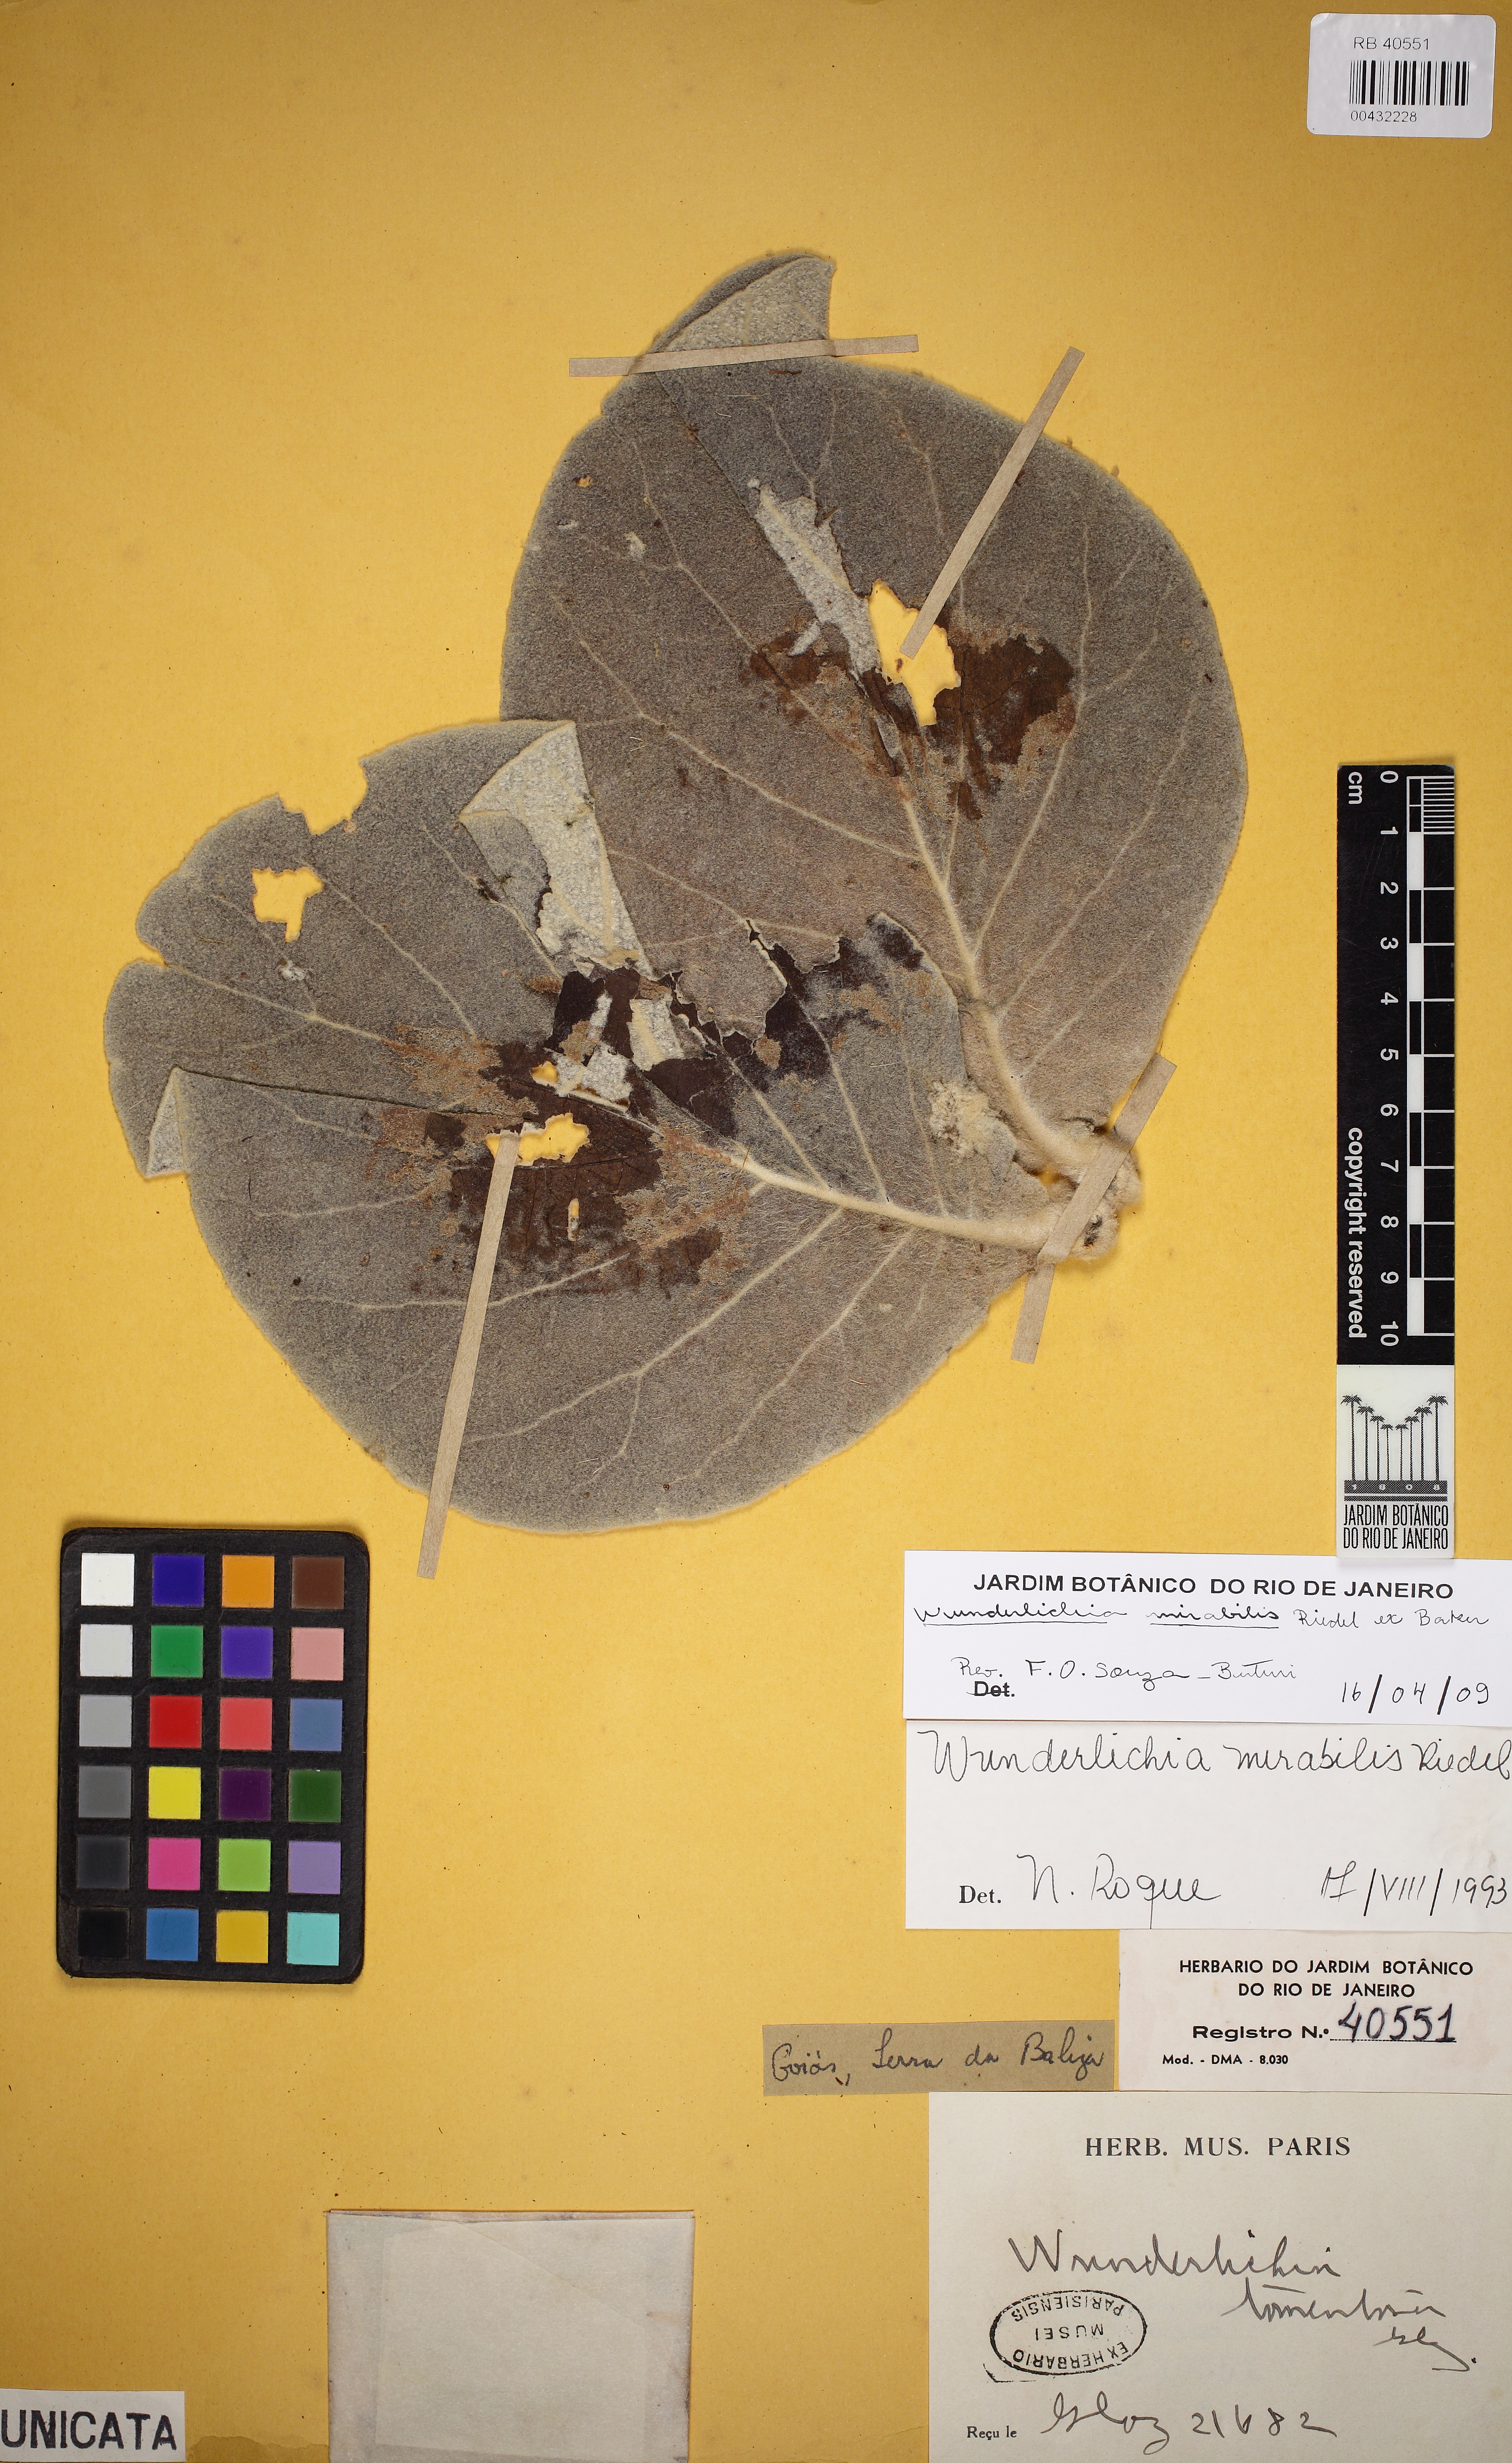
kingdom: Plantae
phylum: Tracheophyta
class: Magnoliopsida
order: Asterales
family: Asteraceae
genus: Wunderlichia
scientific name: Wunderlichia mirabilis
